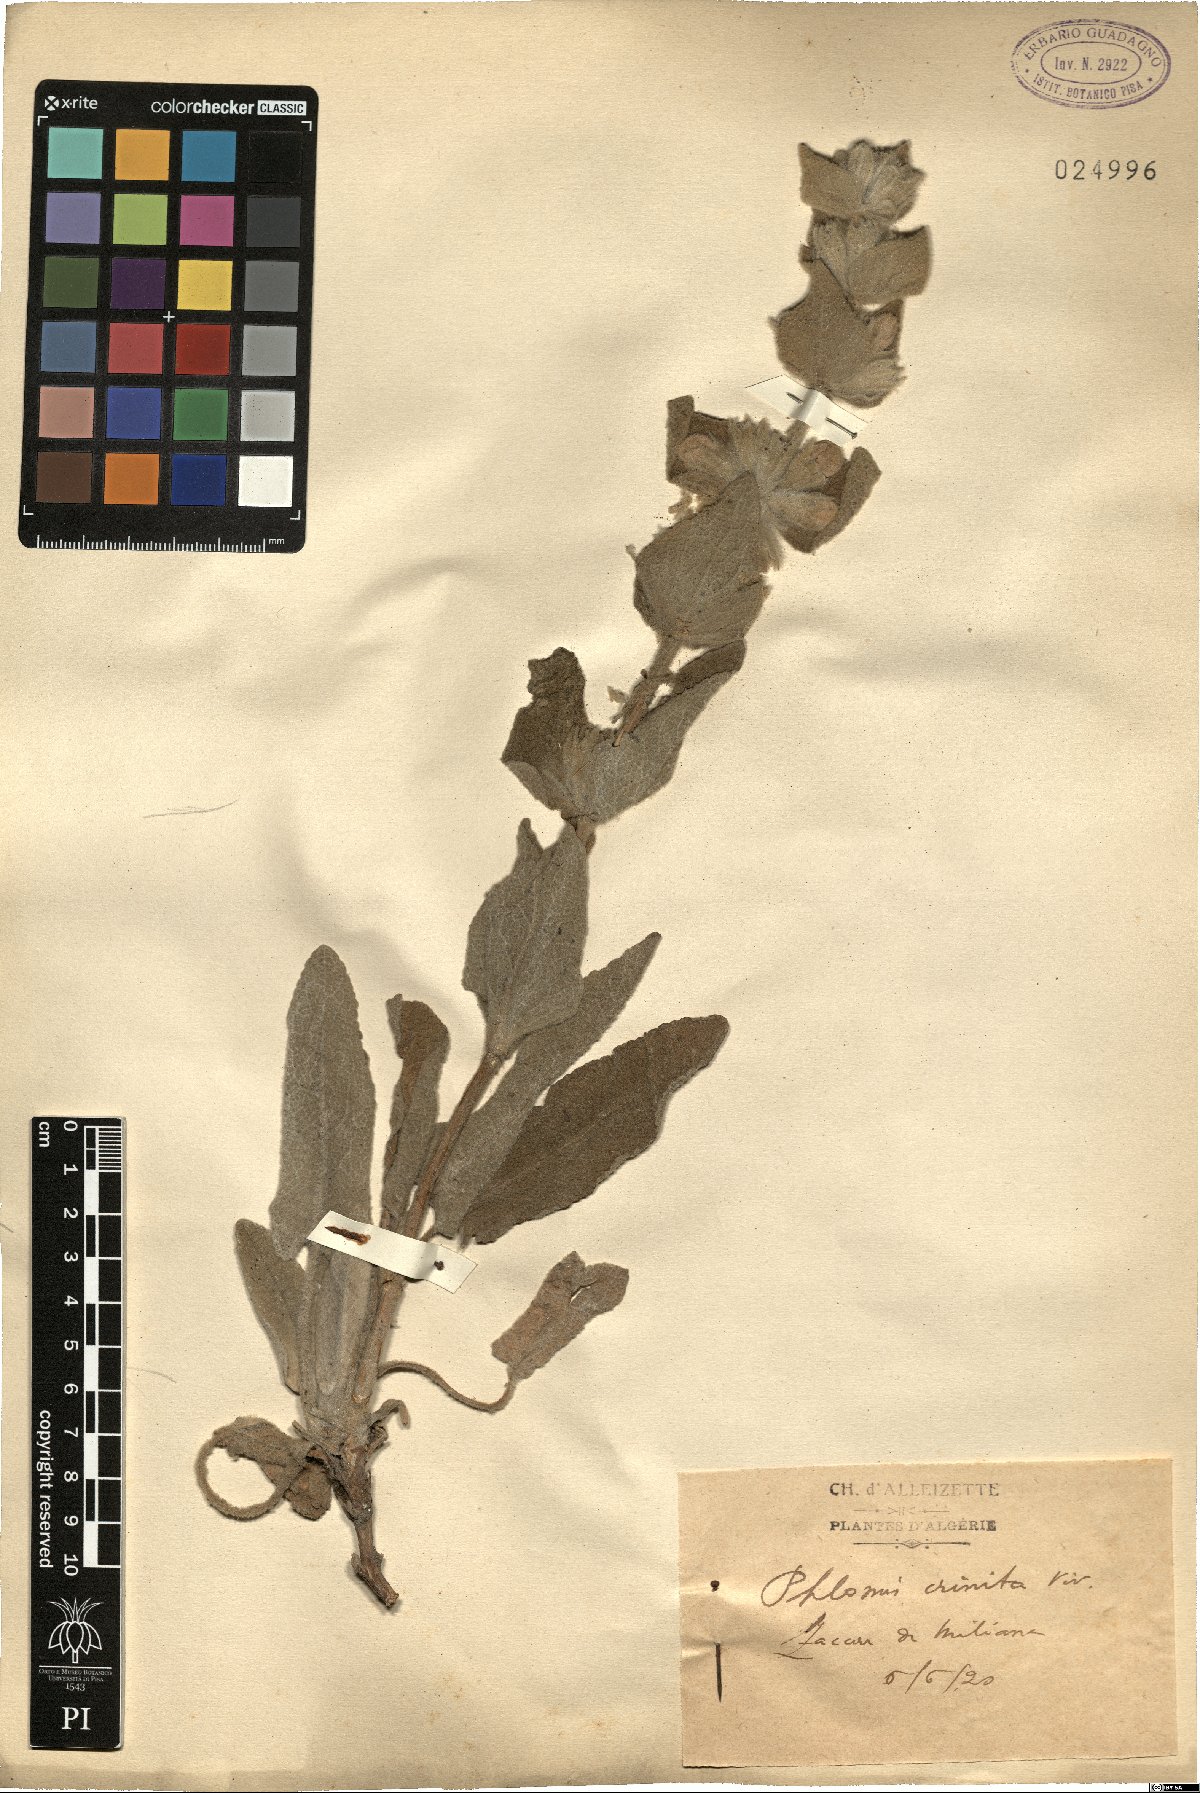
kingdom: Plantae
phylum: Tracheophyta
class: Magnoliopsida
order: Lamiales
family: Lamiaceae
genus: Phlomis
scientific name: Phlomis crinita
